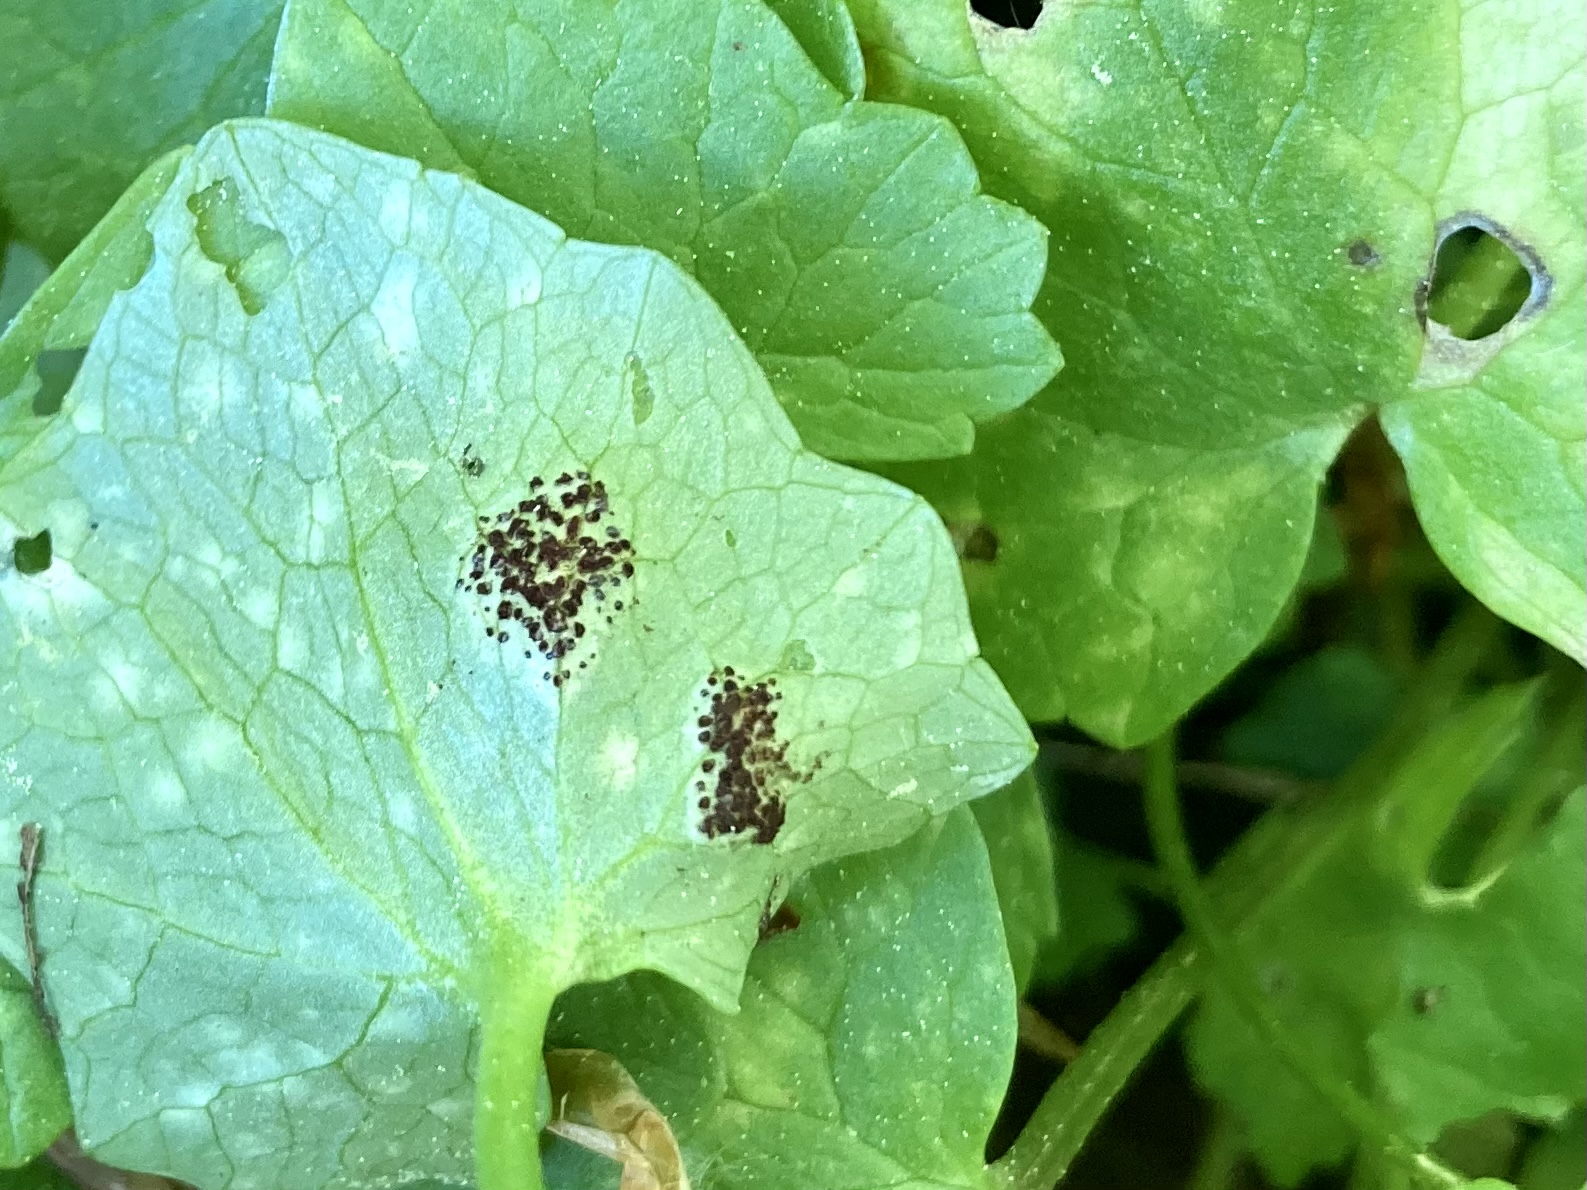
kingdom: Fungi
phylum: Basidiomycota
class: Pucciniomycetes
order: Pucciniales
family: Pucciniaceae
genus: Uromyces
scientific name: Uromyces ficariae
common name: vorterod-encellerust
